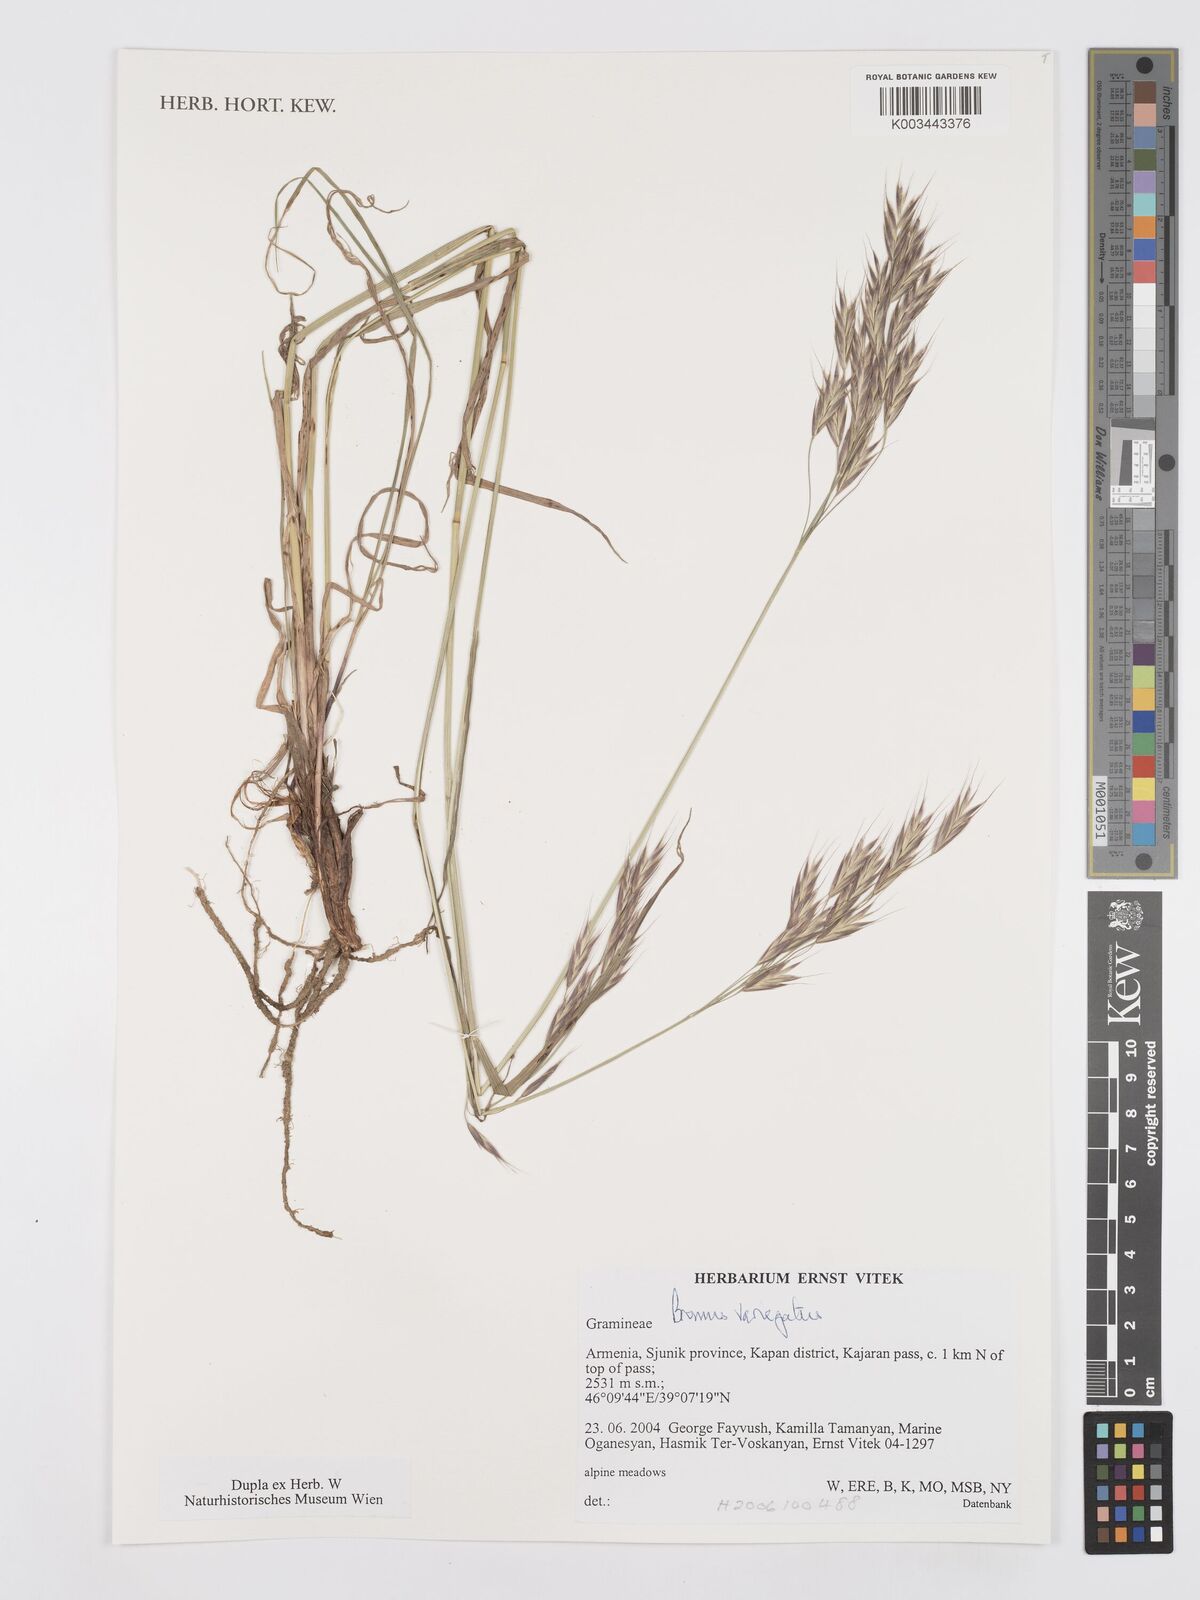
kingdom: Plantae
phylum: Tracheophyta
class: Liliopsida
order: Poales
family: Poaceae
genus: Bromus
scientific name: Bromus variegatus
